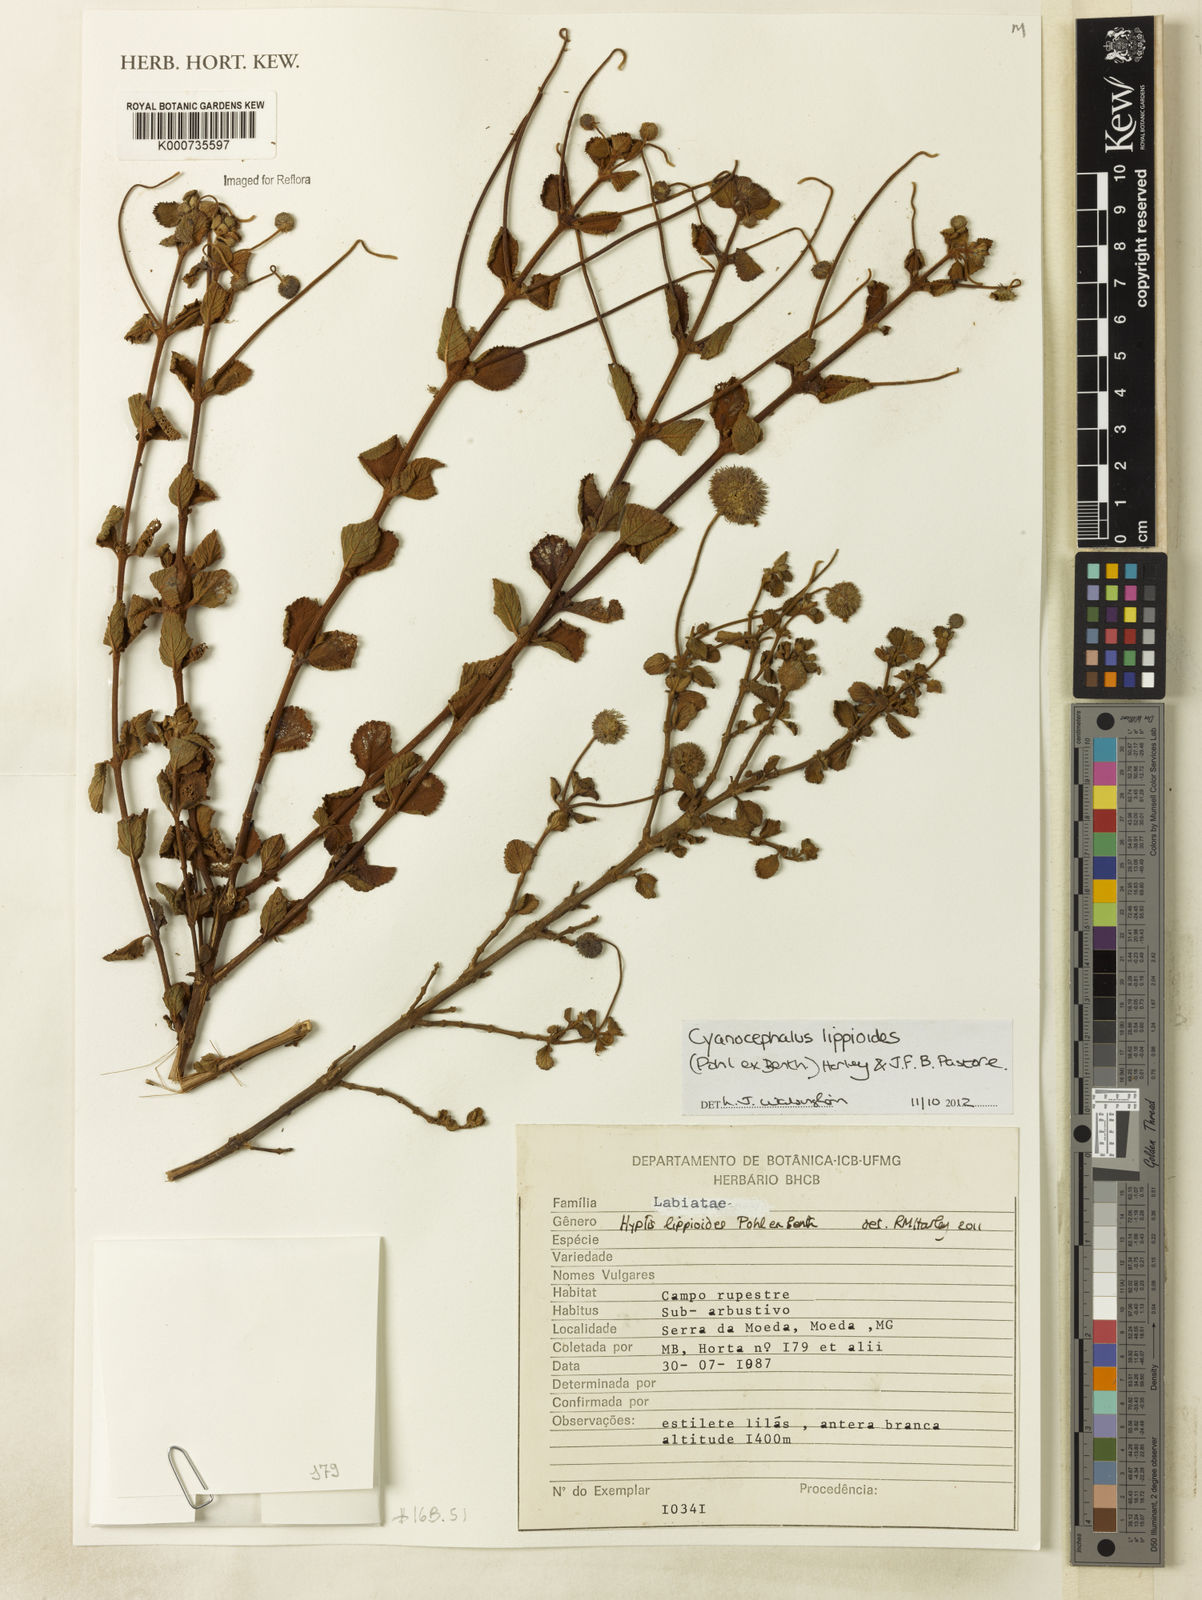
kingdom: Plantae
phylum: Tracheophyta
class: Magnoliopsida
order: Lamiales
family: Lamiaceae
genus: Cyanocephalus
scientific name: Cyanocephalus lippioides
